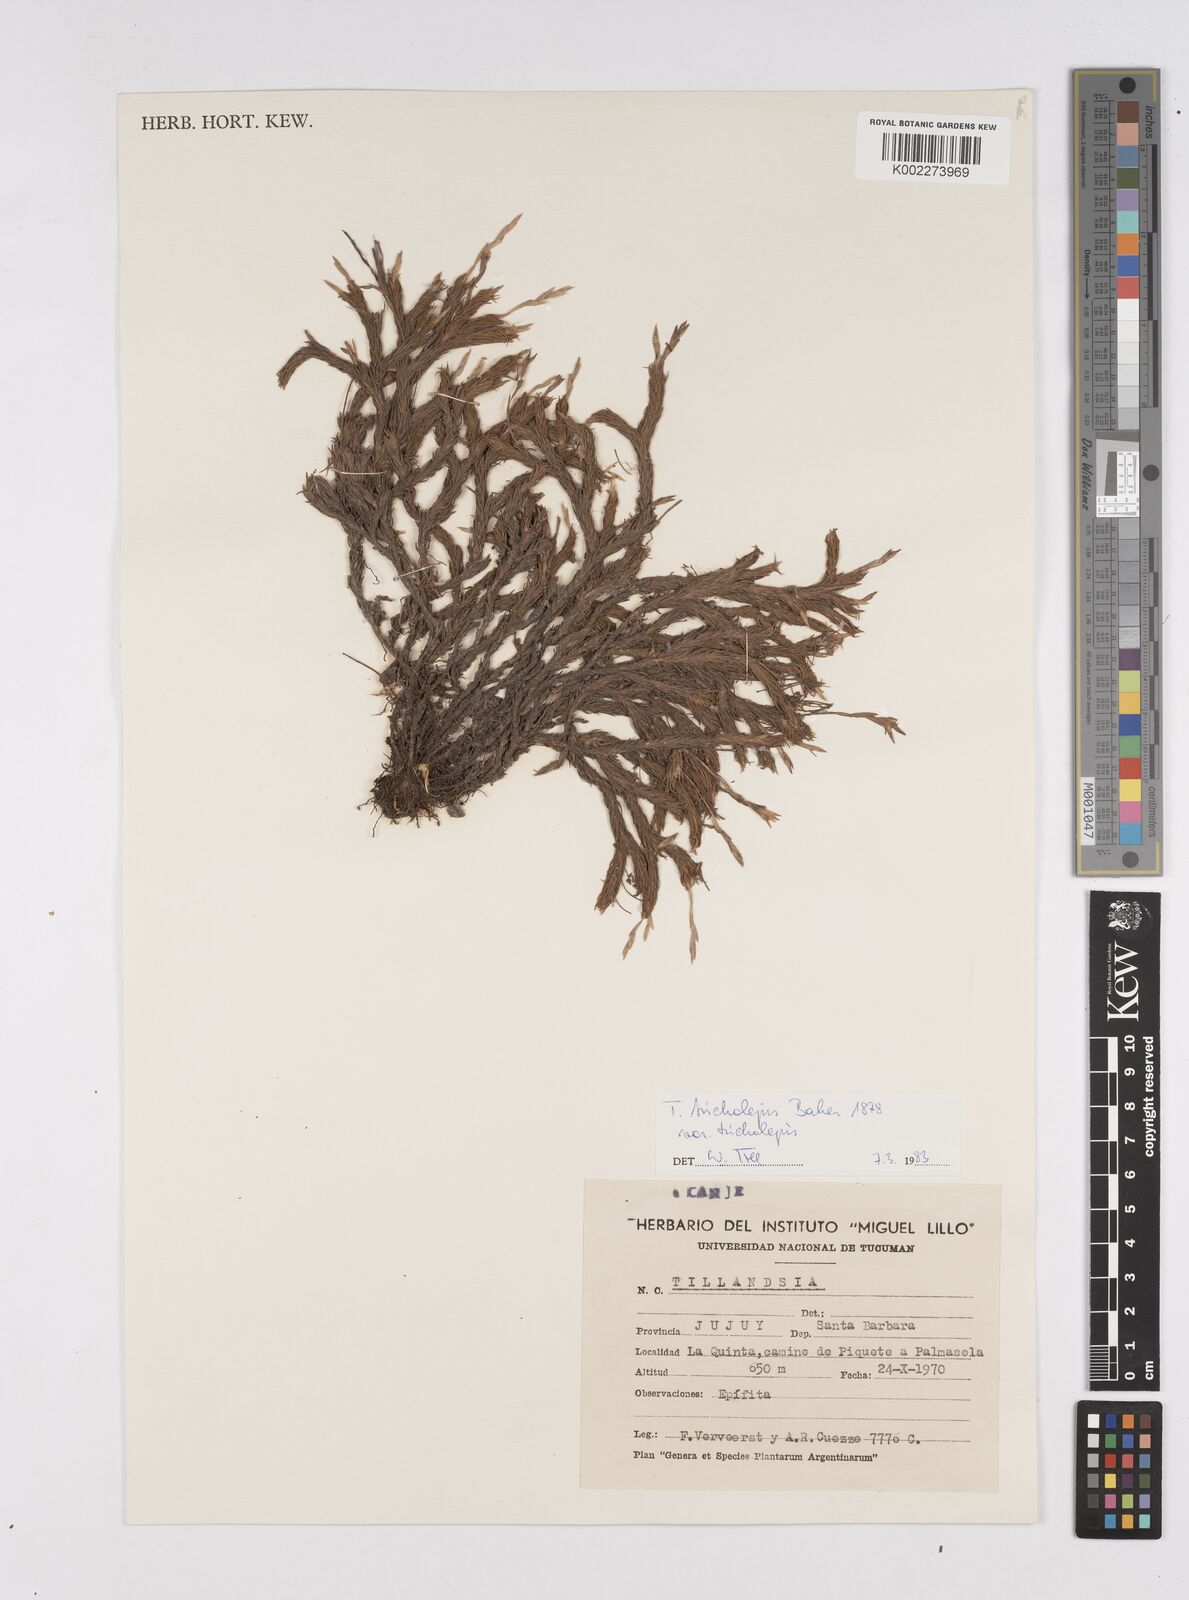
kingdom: Plantae
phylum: Tracheophyta
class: Liliopsida
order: Poales
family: Bromeliaceae
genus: Tillandsia
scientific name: Tillandsia
